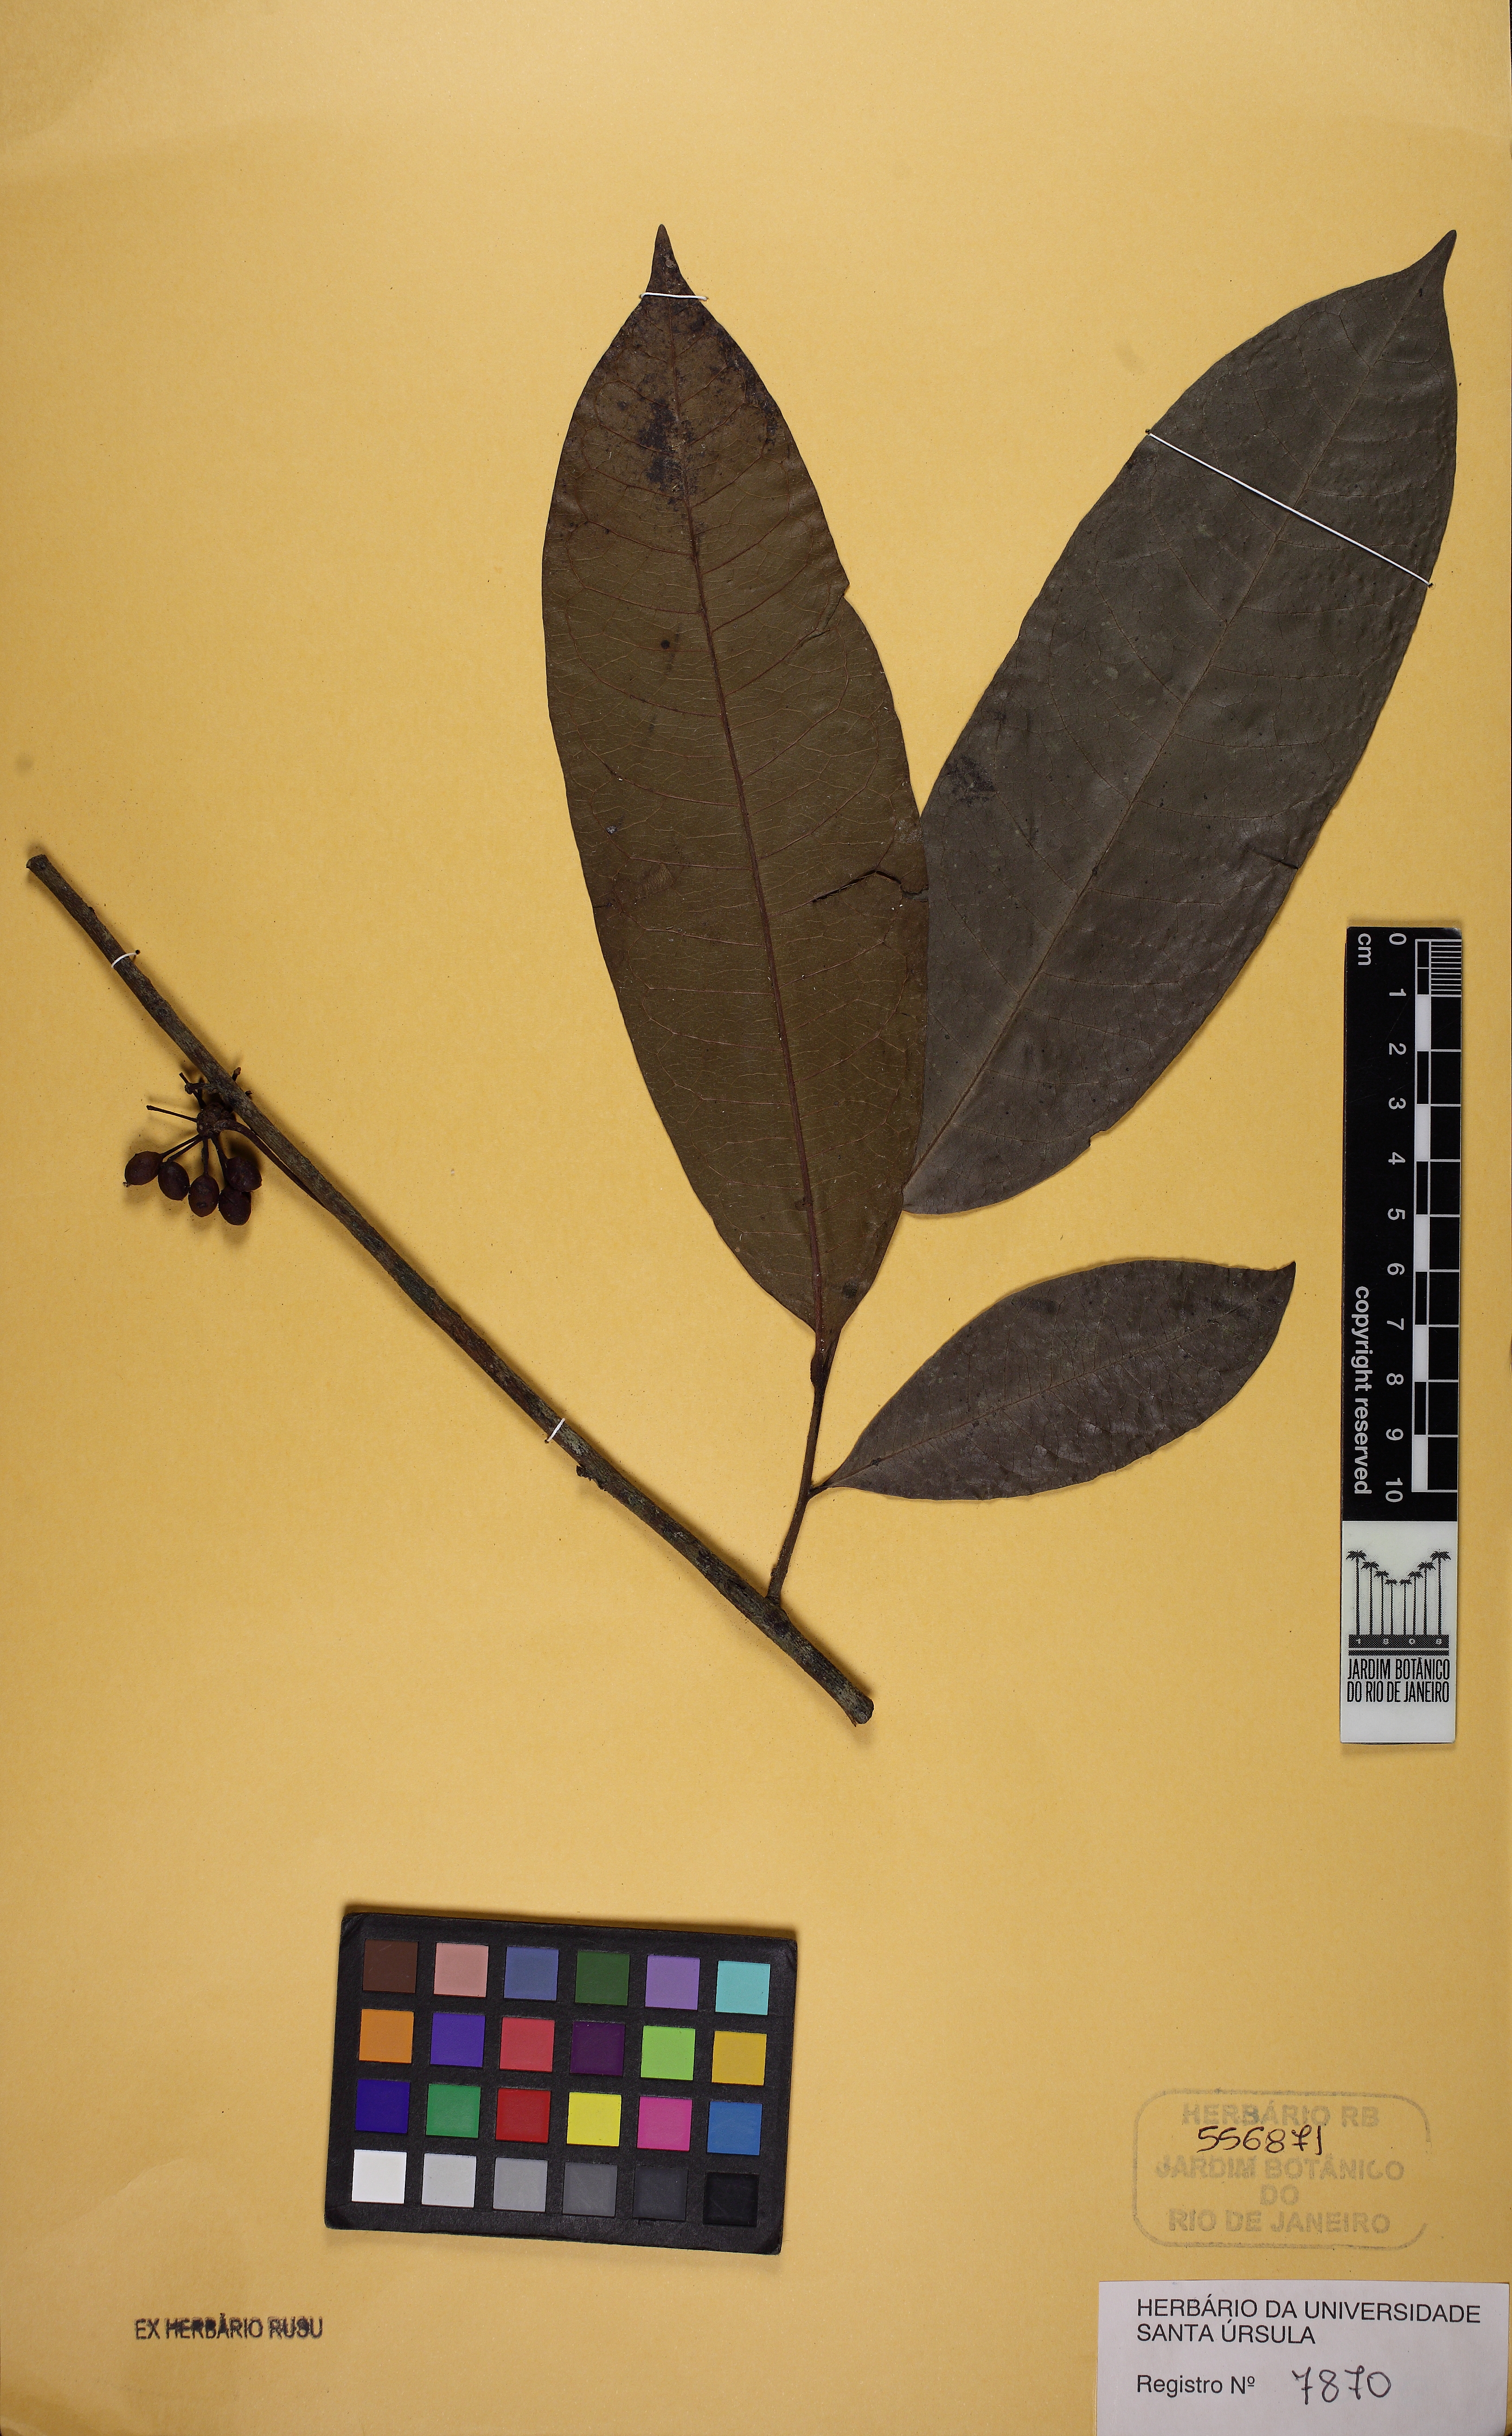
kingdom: Plantae
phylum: Tracheophyta
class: Magnoliopsida
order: Magnoliales
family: Annonaceae
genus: Guatteria
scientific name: Guatteria australis
